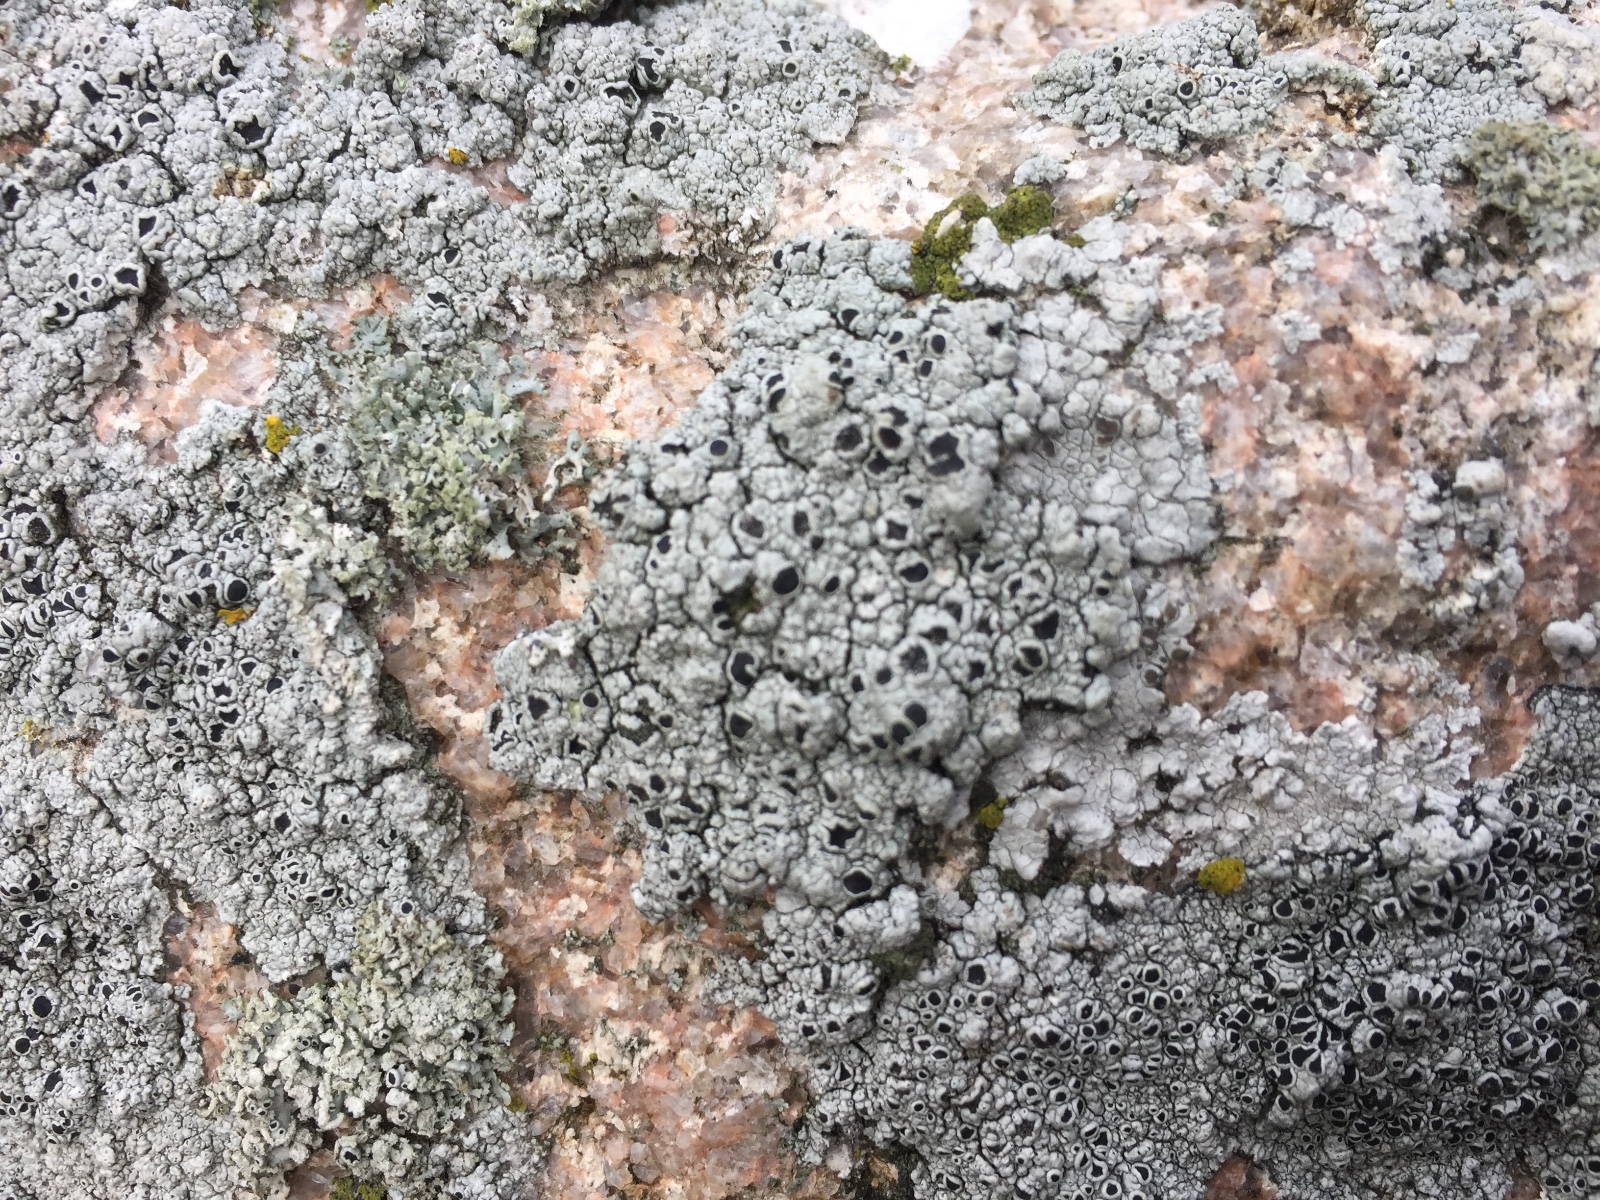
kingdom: Fungi
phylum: Ascomycota
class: Lecanoromycetes
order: Lecanorales
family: Tephromelataceae
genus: Tephromela
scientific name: Tephromela atra
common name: sortfrugtet kantskivelav
